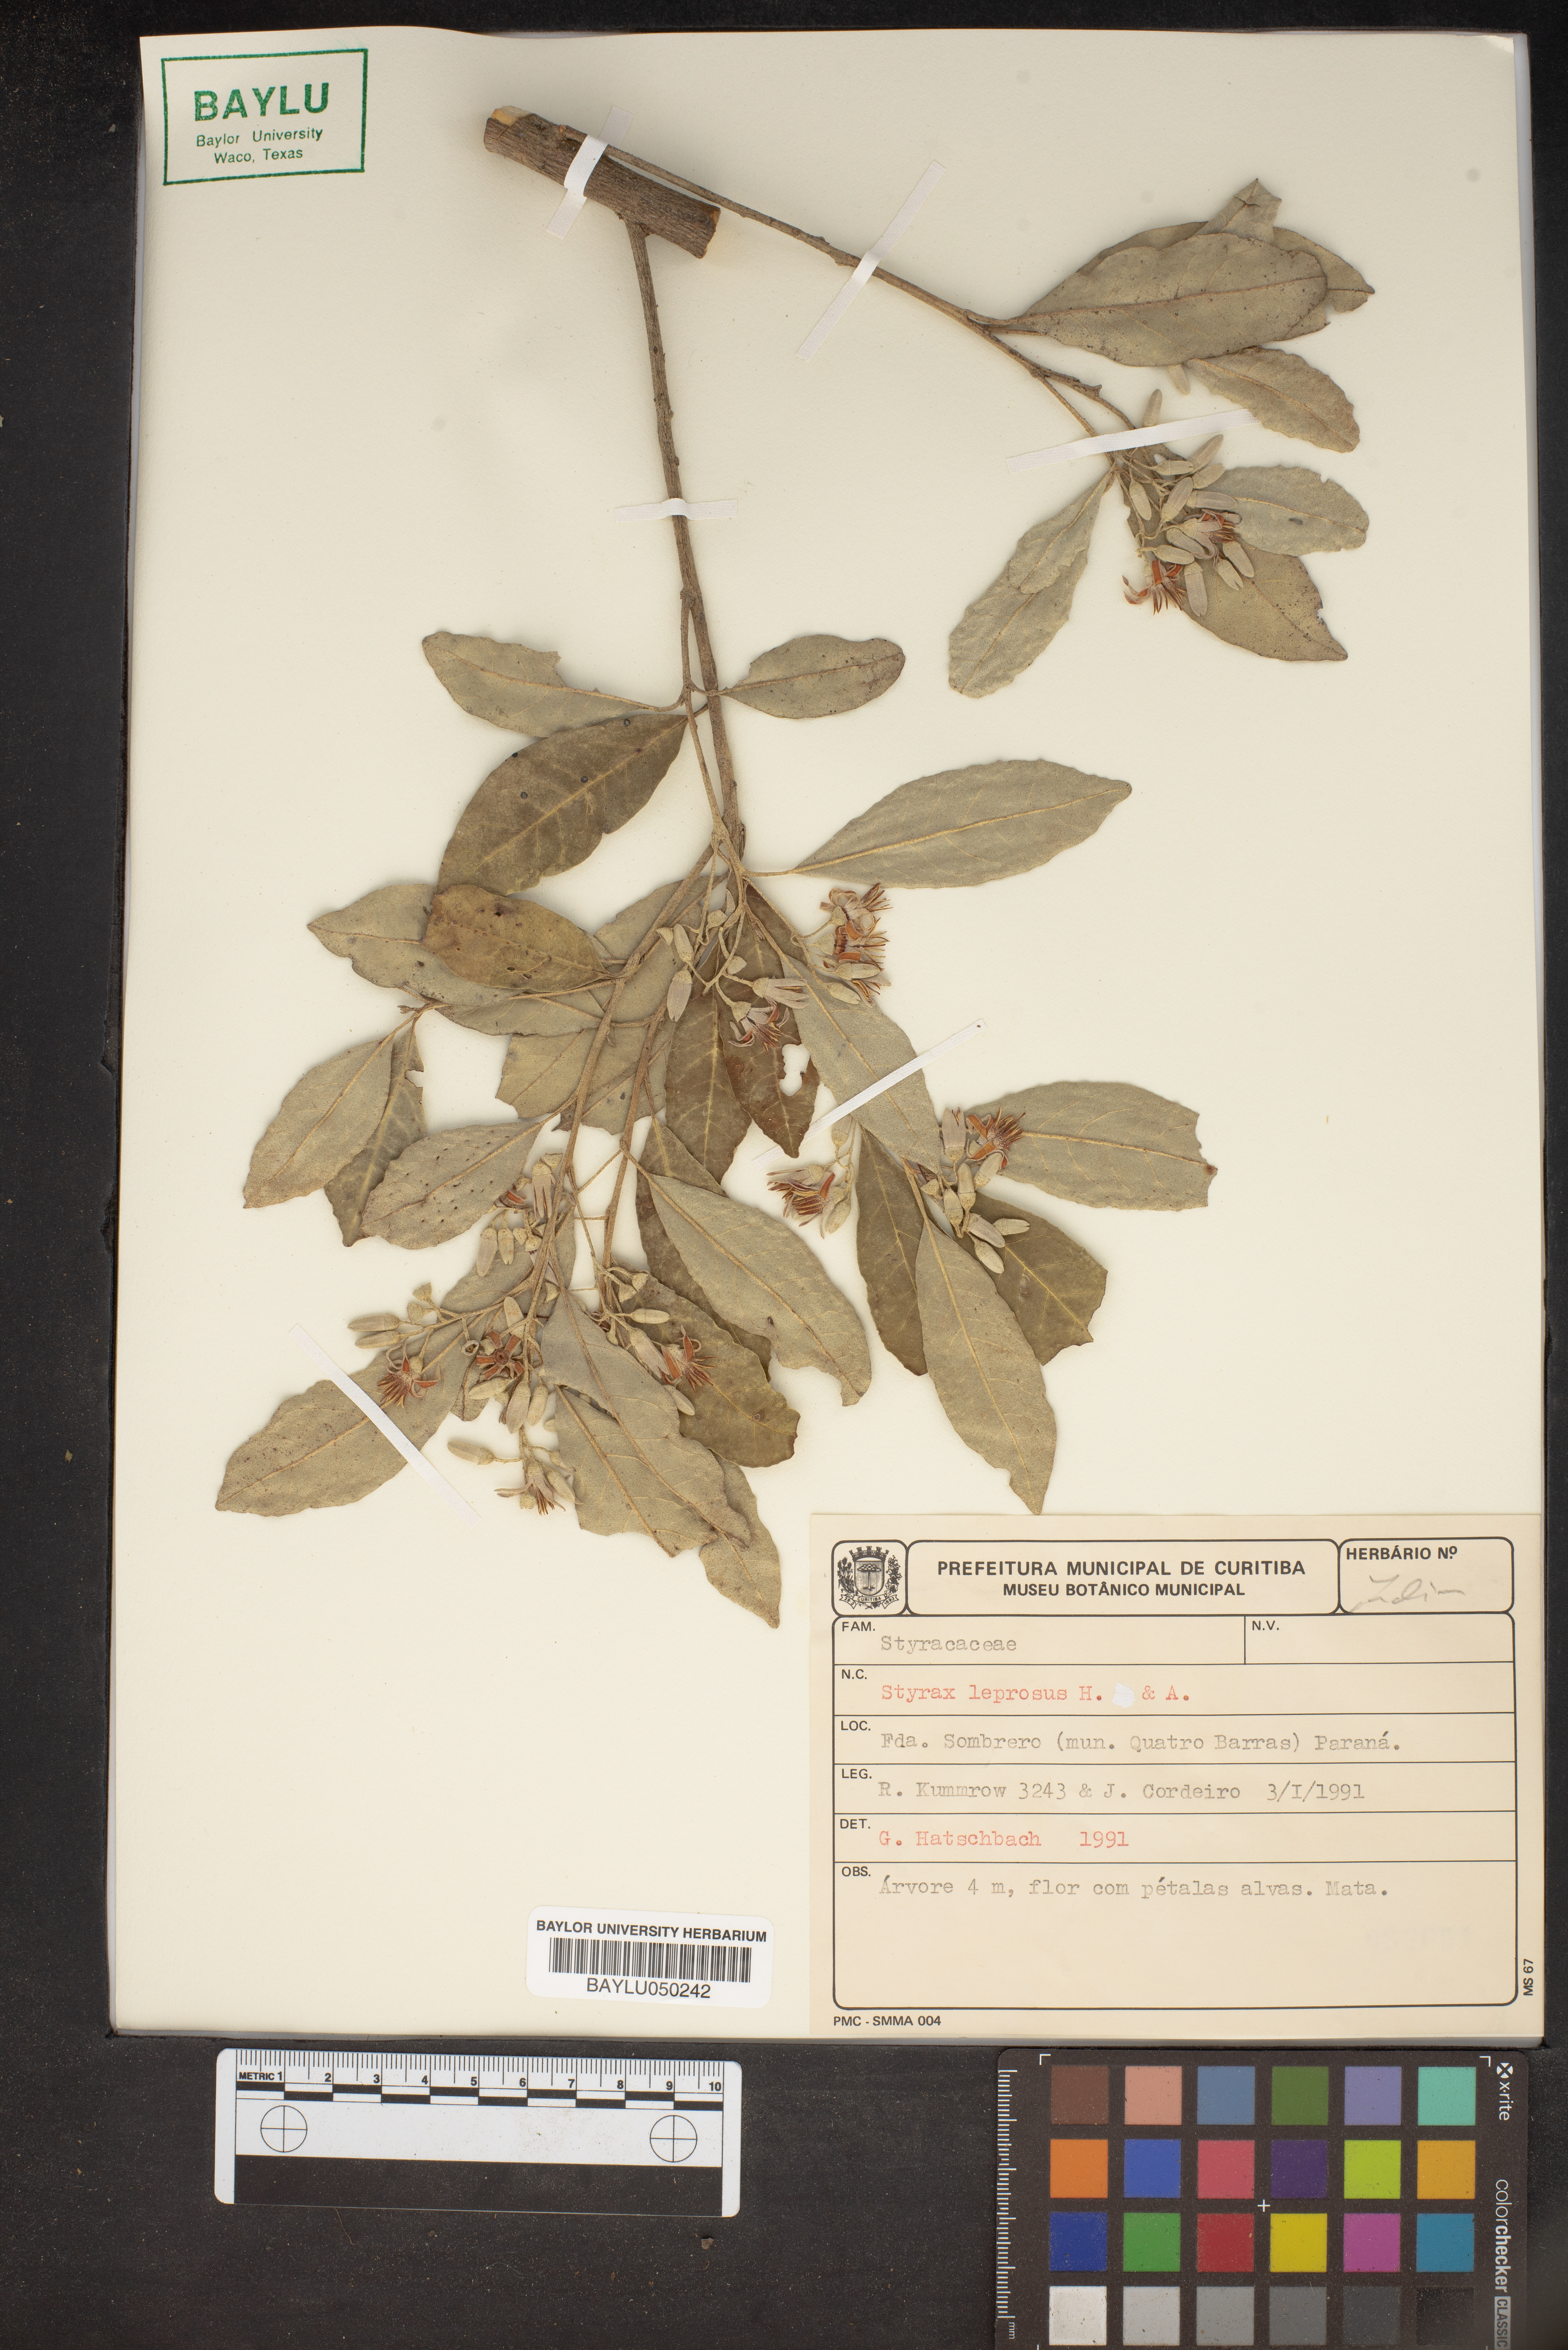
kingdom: Plantae
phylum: Tracheophyta
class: Magnoliopsida
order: Ericales
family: Styracaceae
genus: Styrax
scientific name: Styrax leprosus
